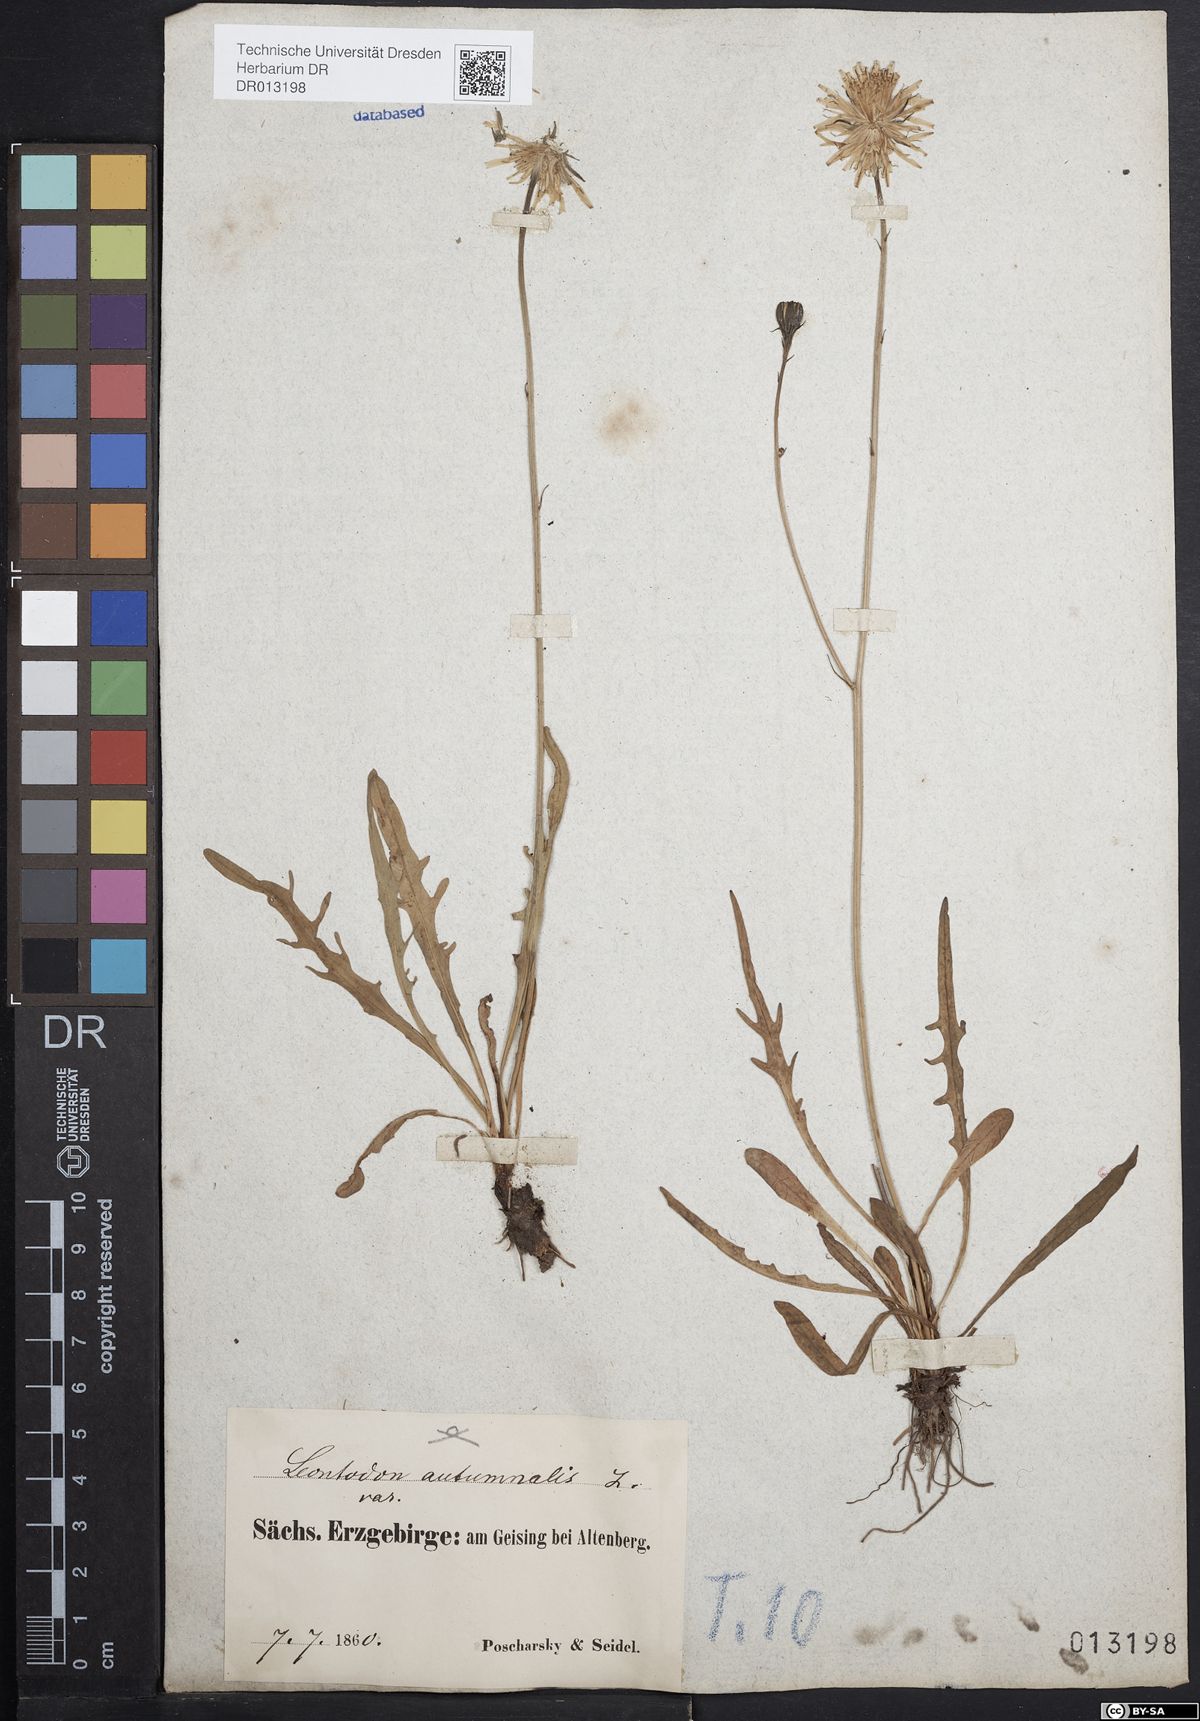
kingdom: Plantae
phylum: Tracheophyta
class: Magnoliopsida
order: Asterales
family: Asteraceae
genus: Scorzoneroides
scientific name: Scorzoneroides autumnalis
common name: Autumn hawkbit
